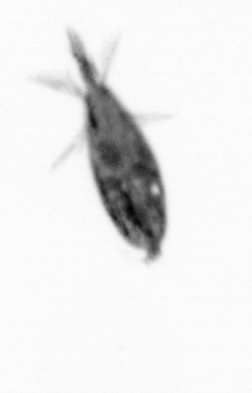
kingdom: Animalia
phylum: Arthropoda
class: Maxillopoda
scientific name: Maxillopoda
